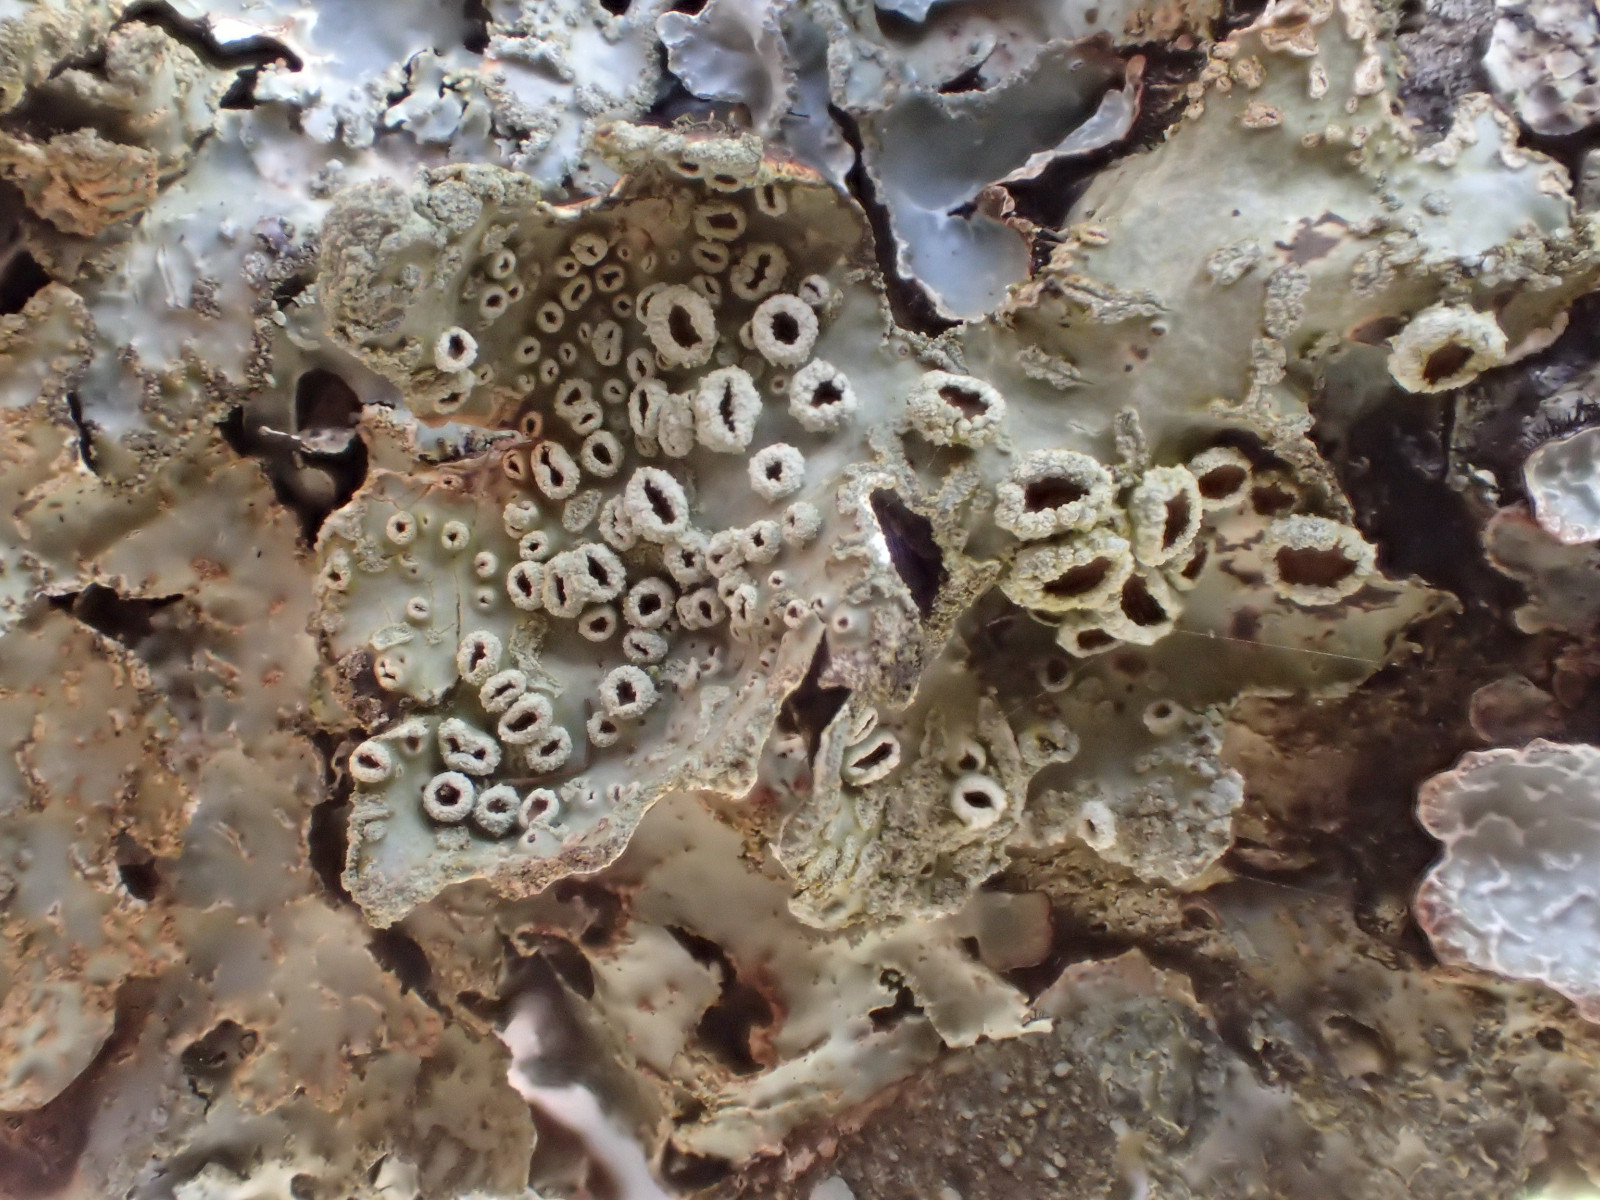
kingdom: Fungi
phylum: Ascomycota
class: Lecanoromycetes
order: Lecanorales
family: Parmeliaceae
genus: Parmelia
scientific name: Parmelia sulcata
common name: rynket skållav
